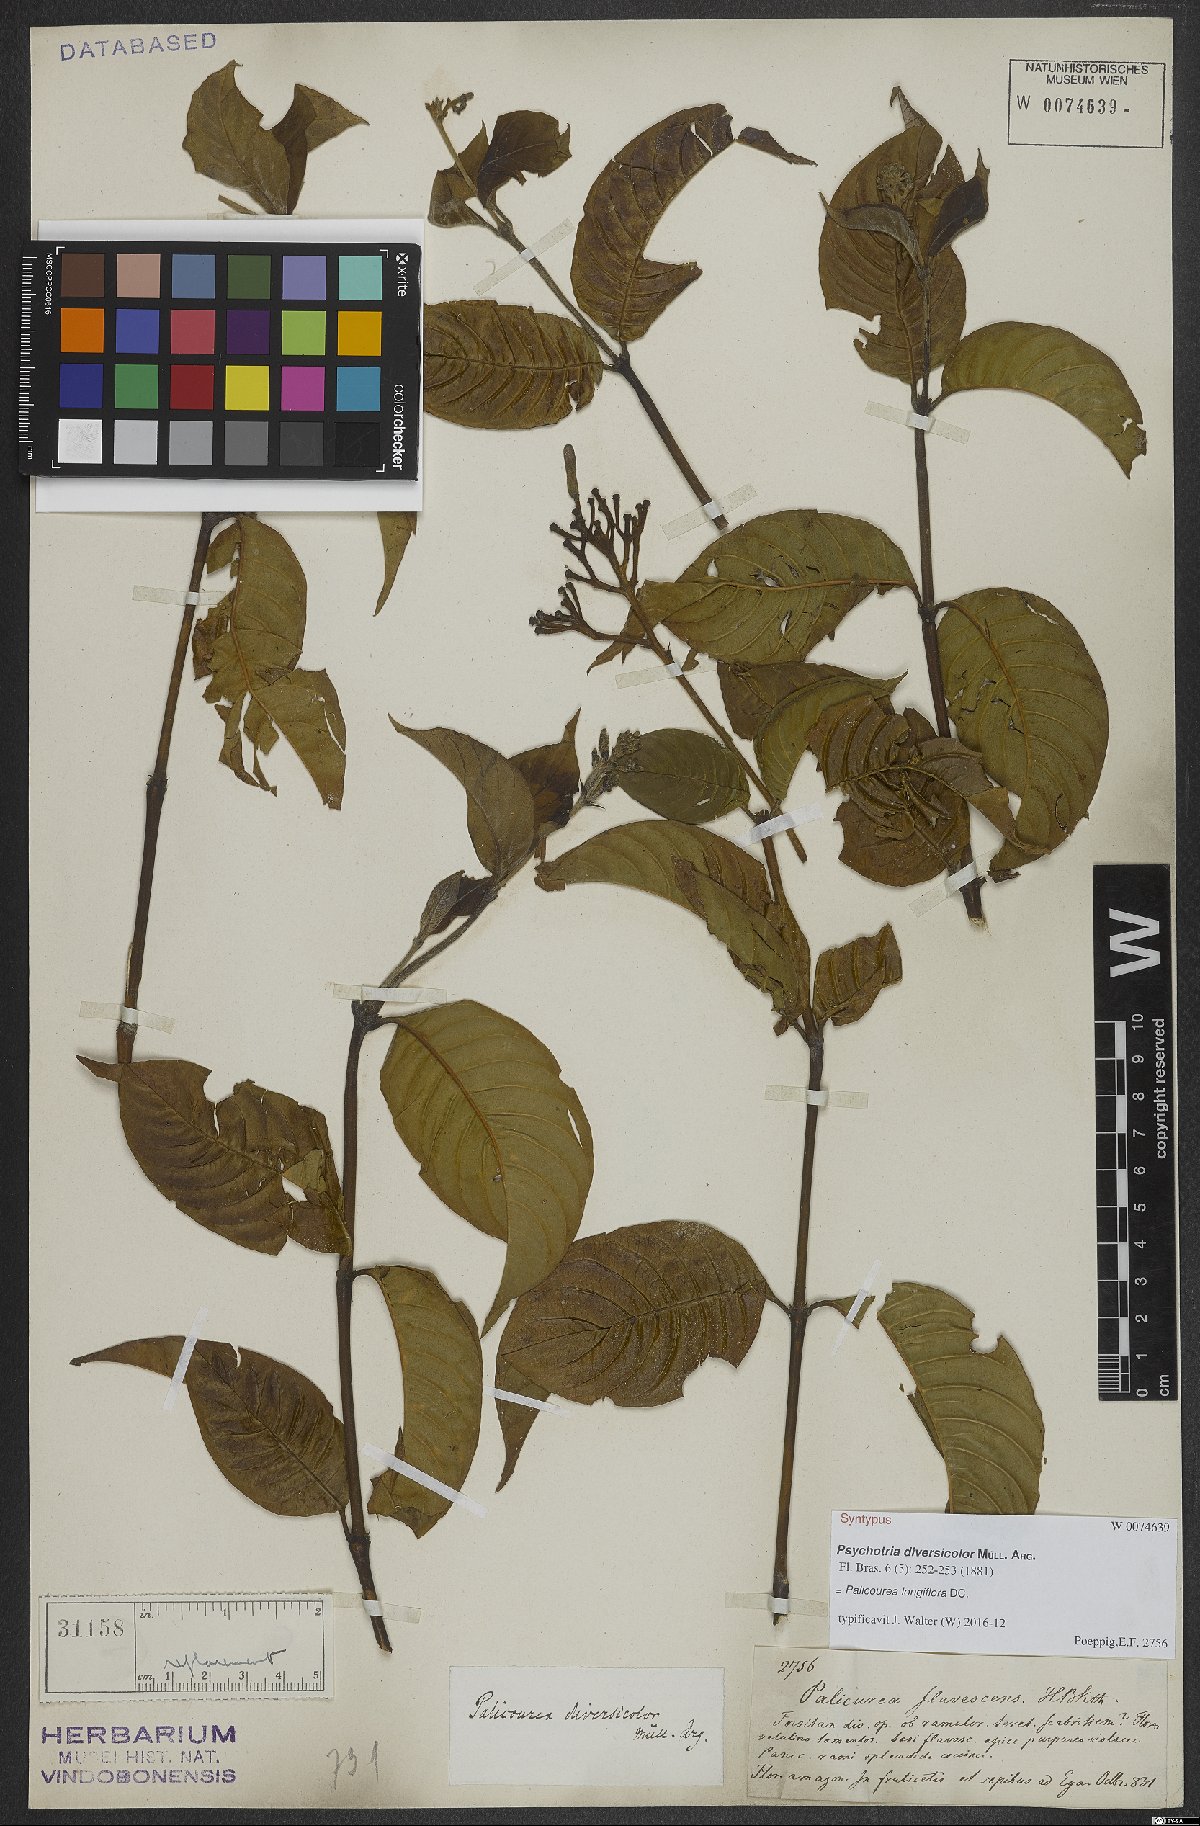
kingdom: Plantae
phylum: Tracheophyta
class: Magnoliopsida
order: Gentianales
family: Rubiaceae
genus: Palicourea
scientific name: Palicourea longiflora
